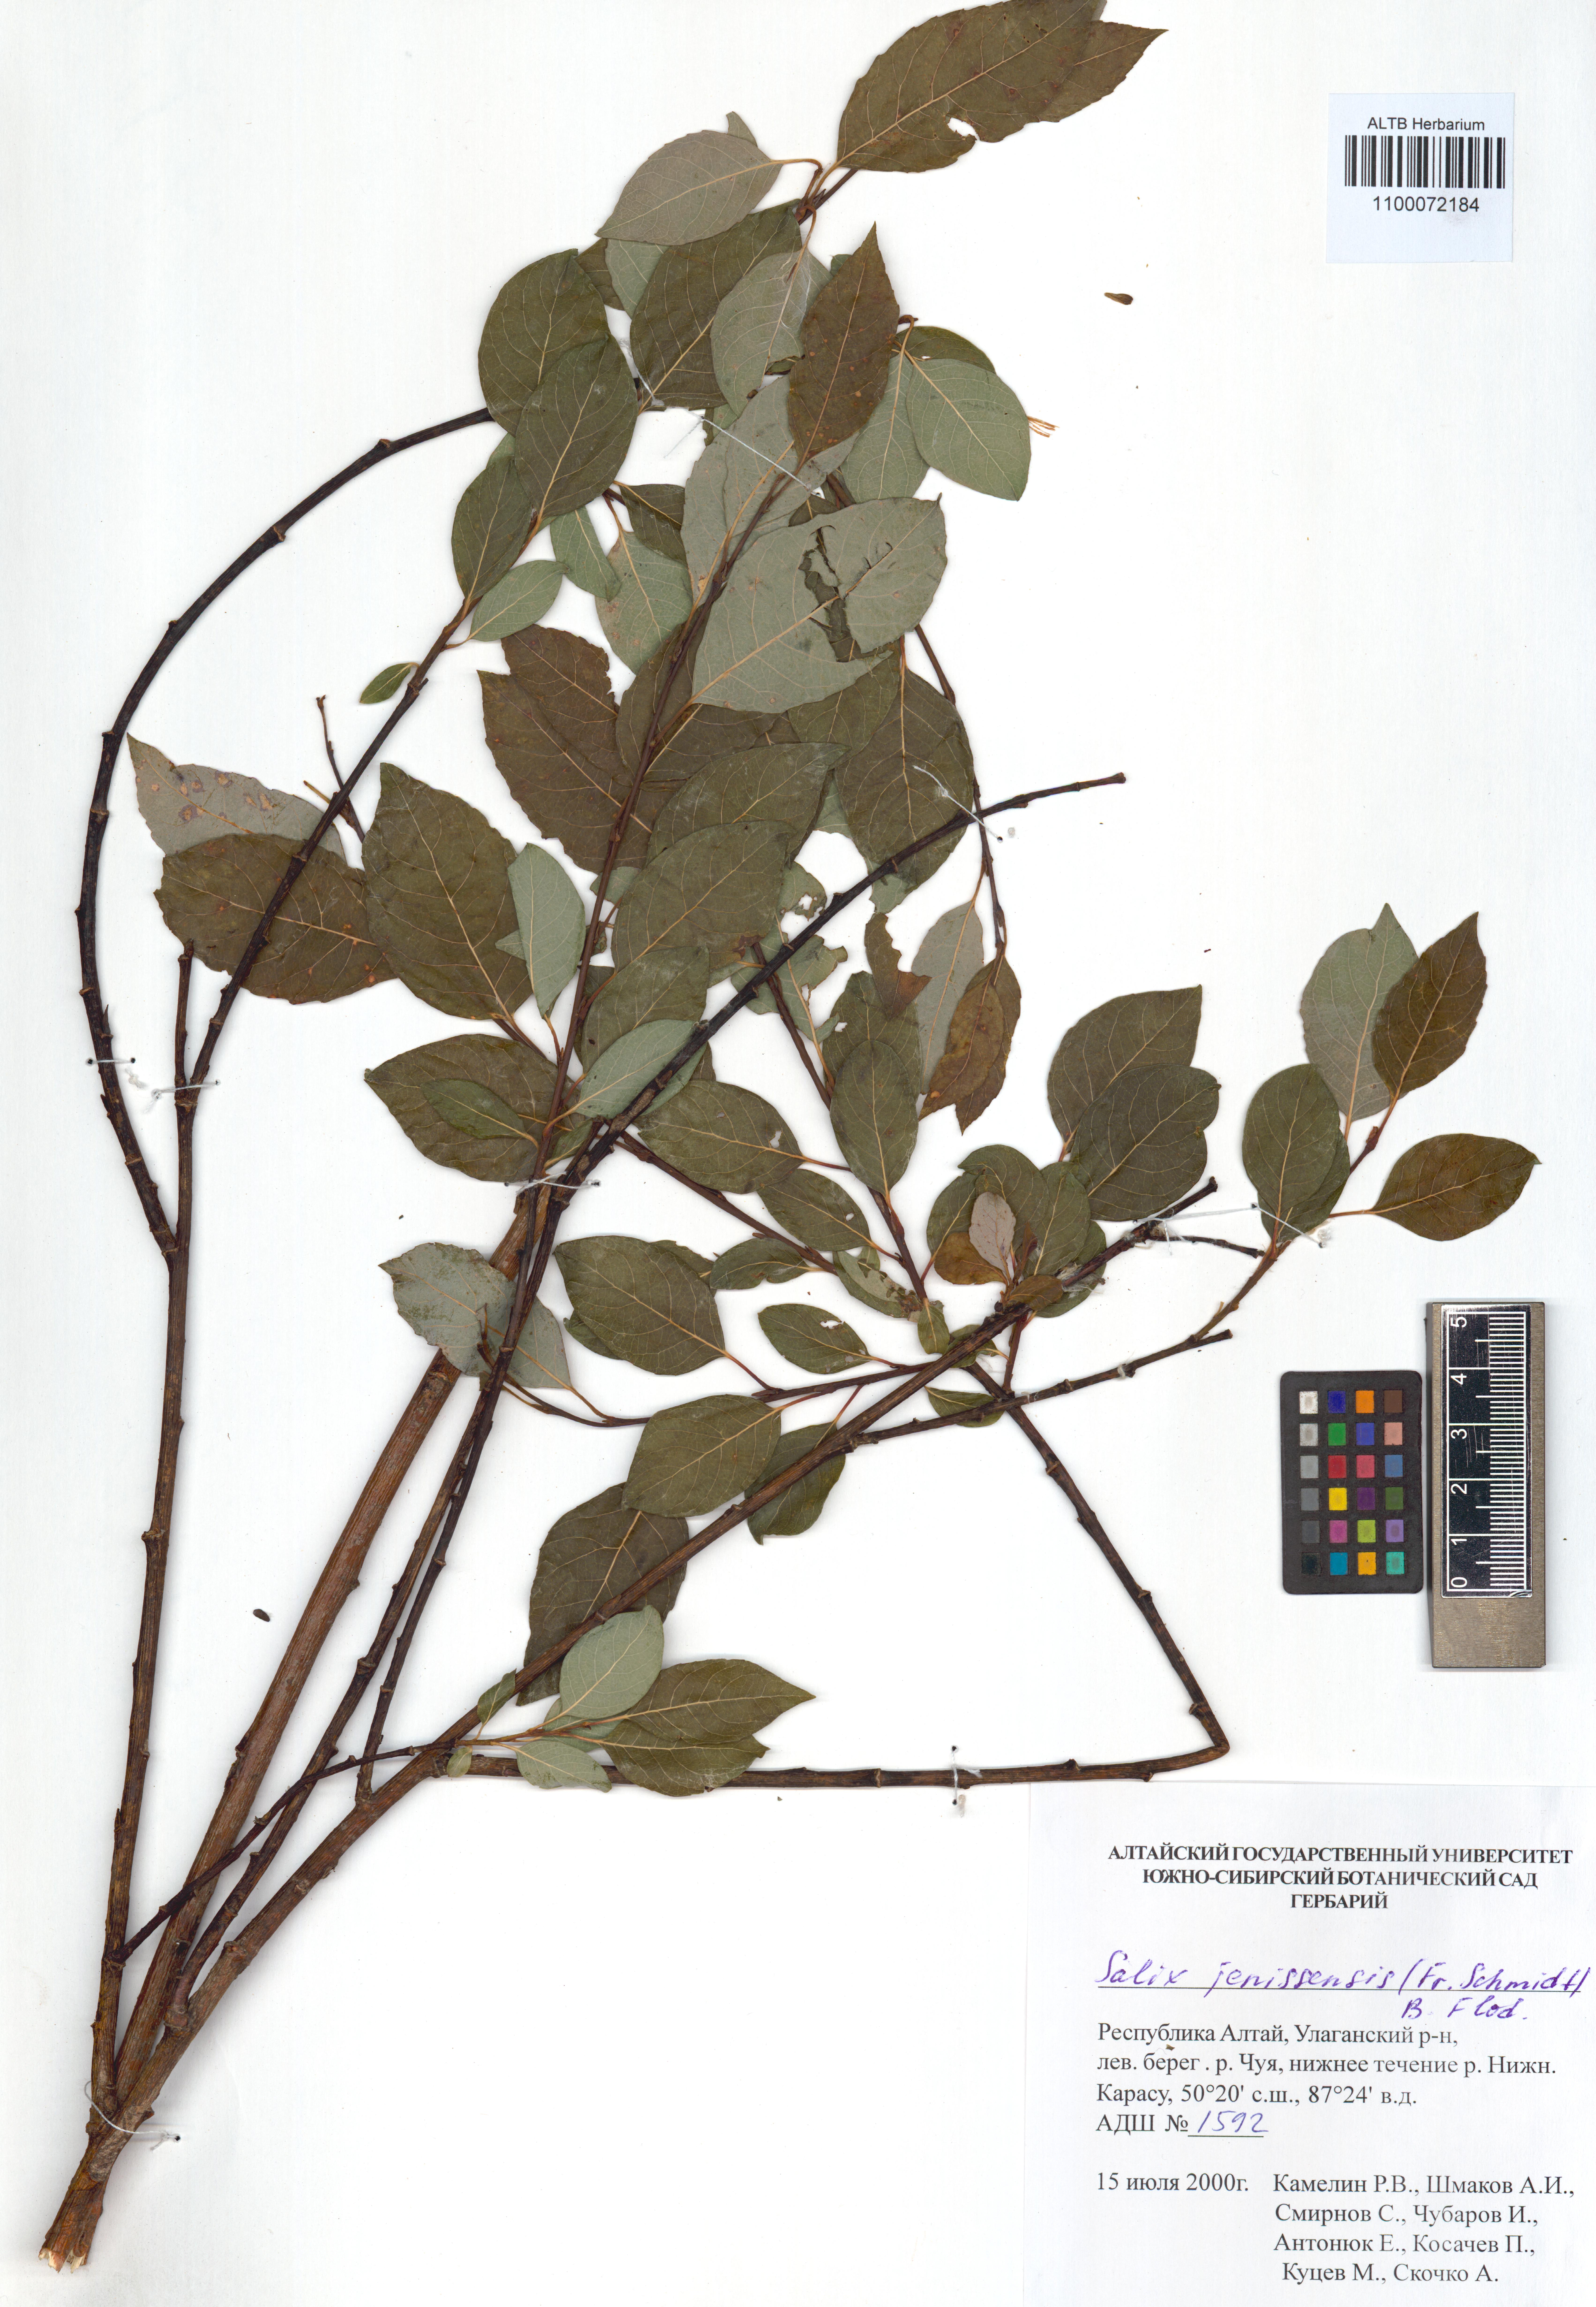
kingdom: Plantae
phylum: Tracheophyta
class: Magnoliopsida
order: Malpighiales
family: Salicaceae
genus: Salix
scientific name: Salix jenisseensis
